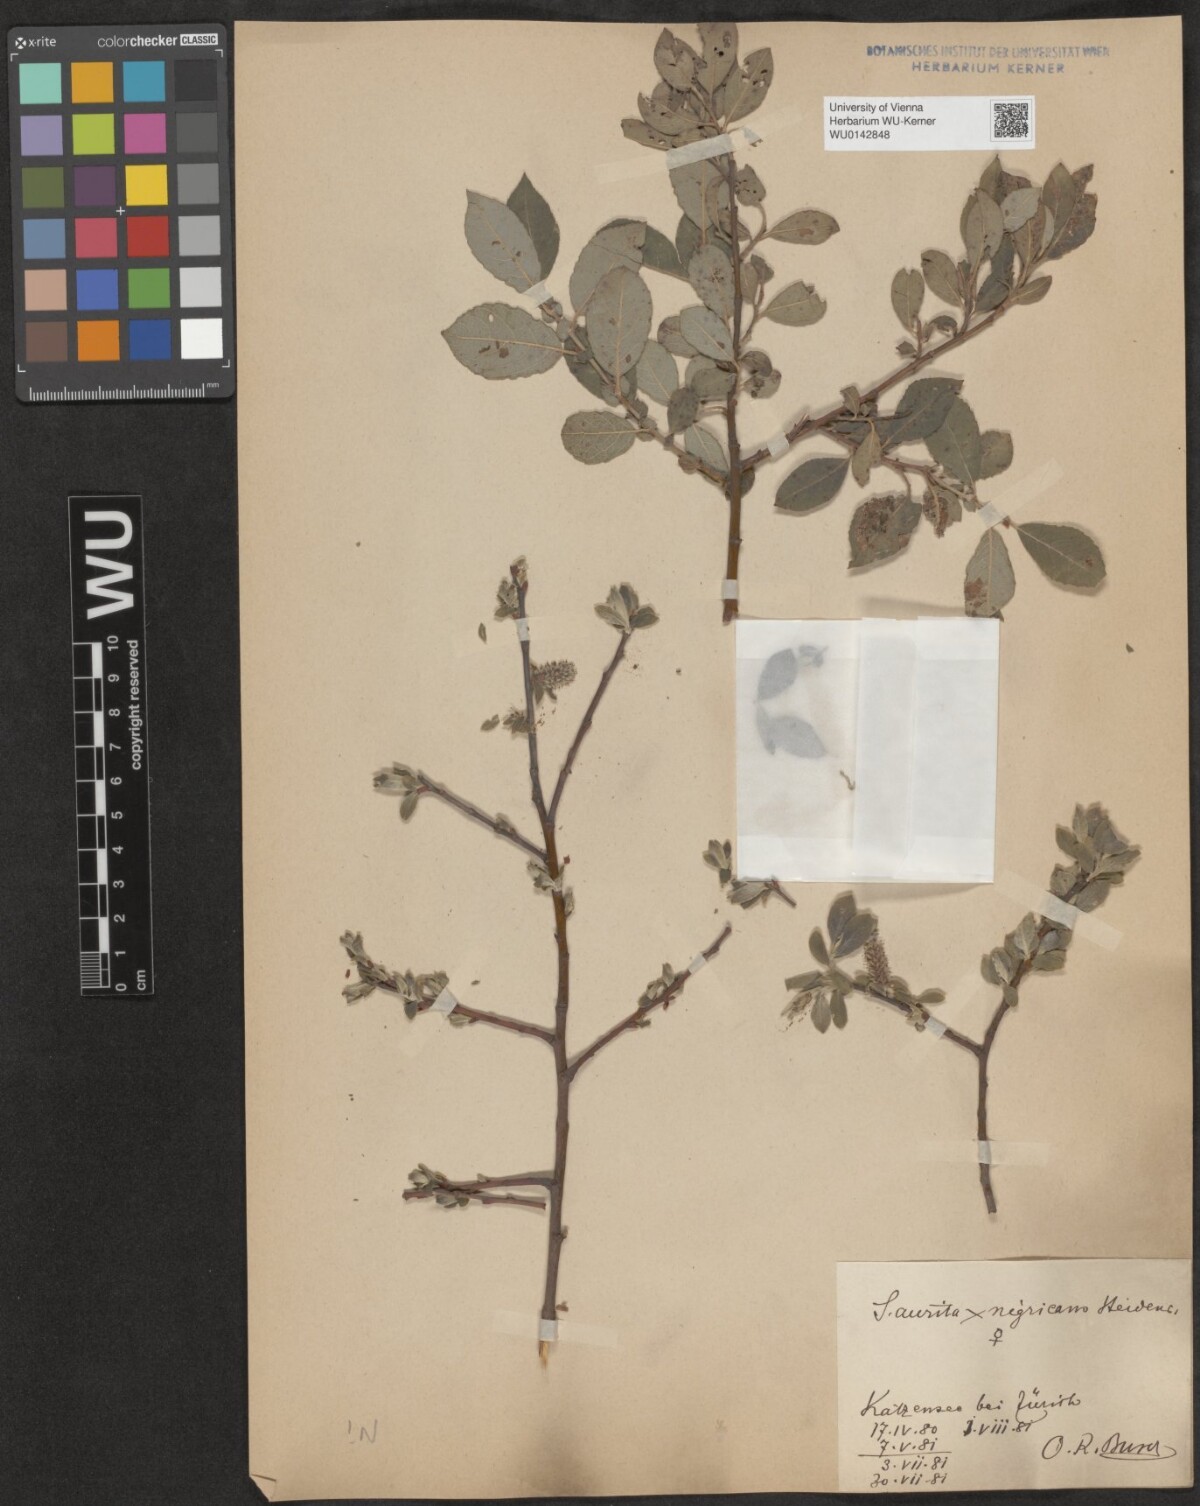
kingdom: Plantae
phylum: Tracheophyta
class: Magnoliopsida
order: Malpighiales
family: Salicaceae
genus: Salix
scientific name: Salix myrsinifolia
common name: Dark-leaved willow
